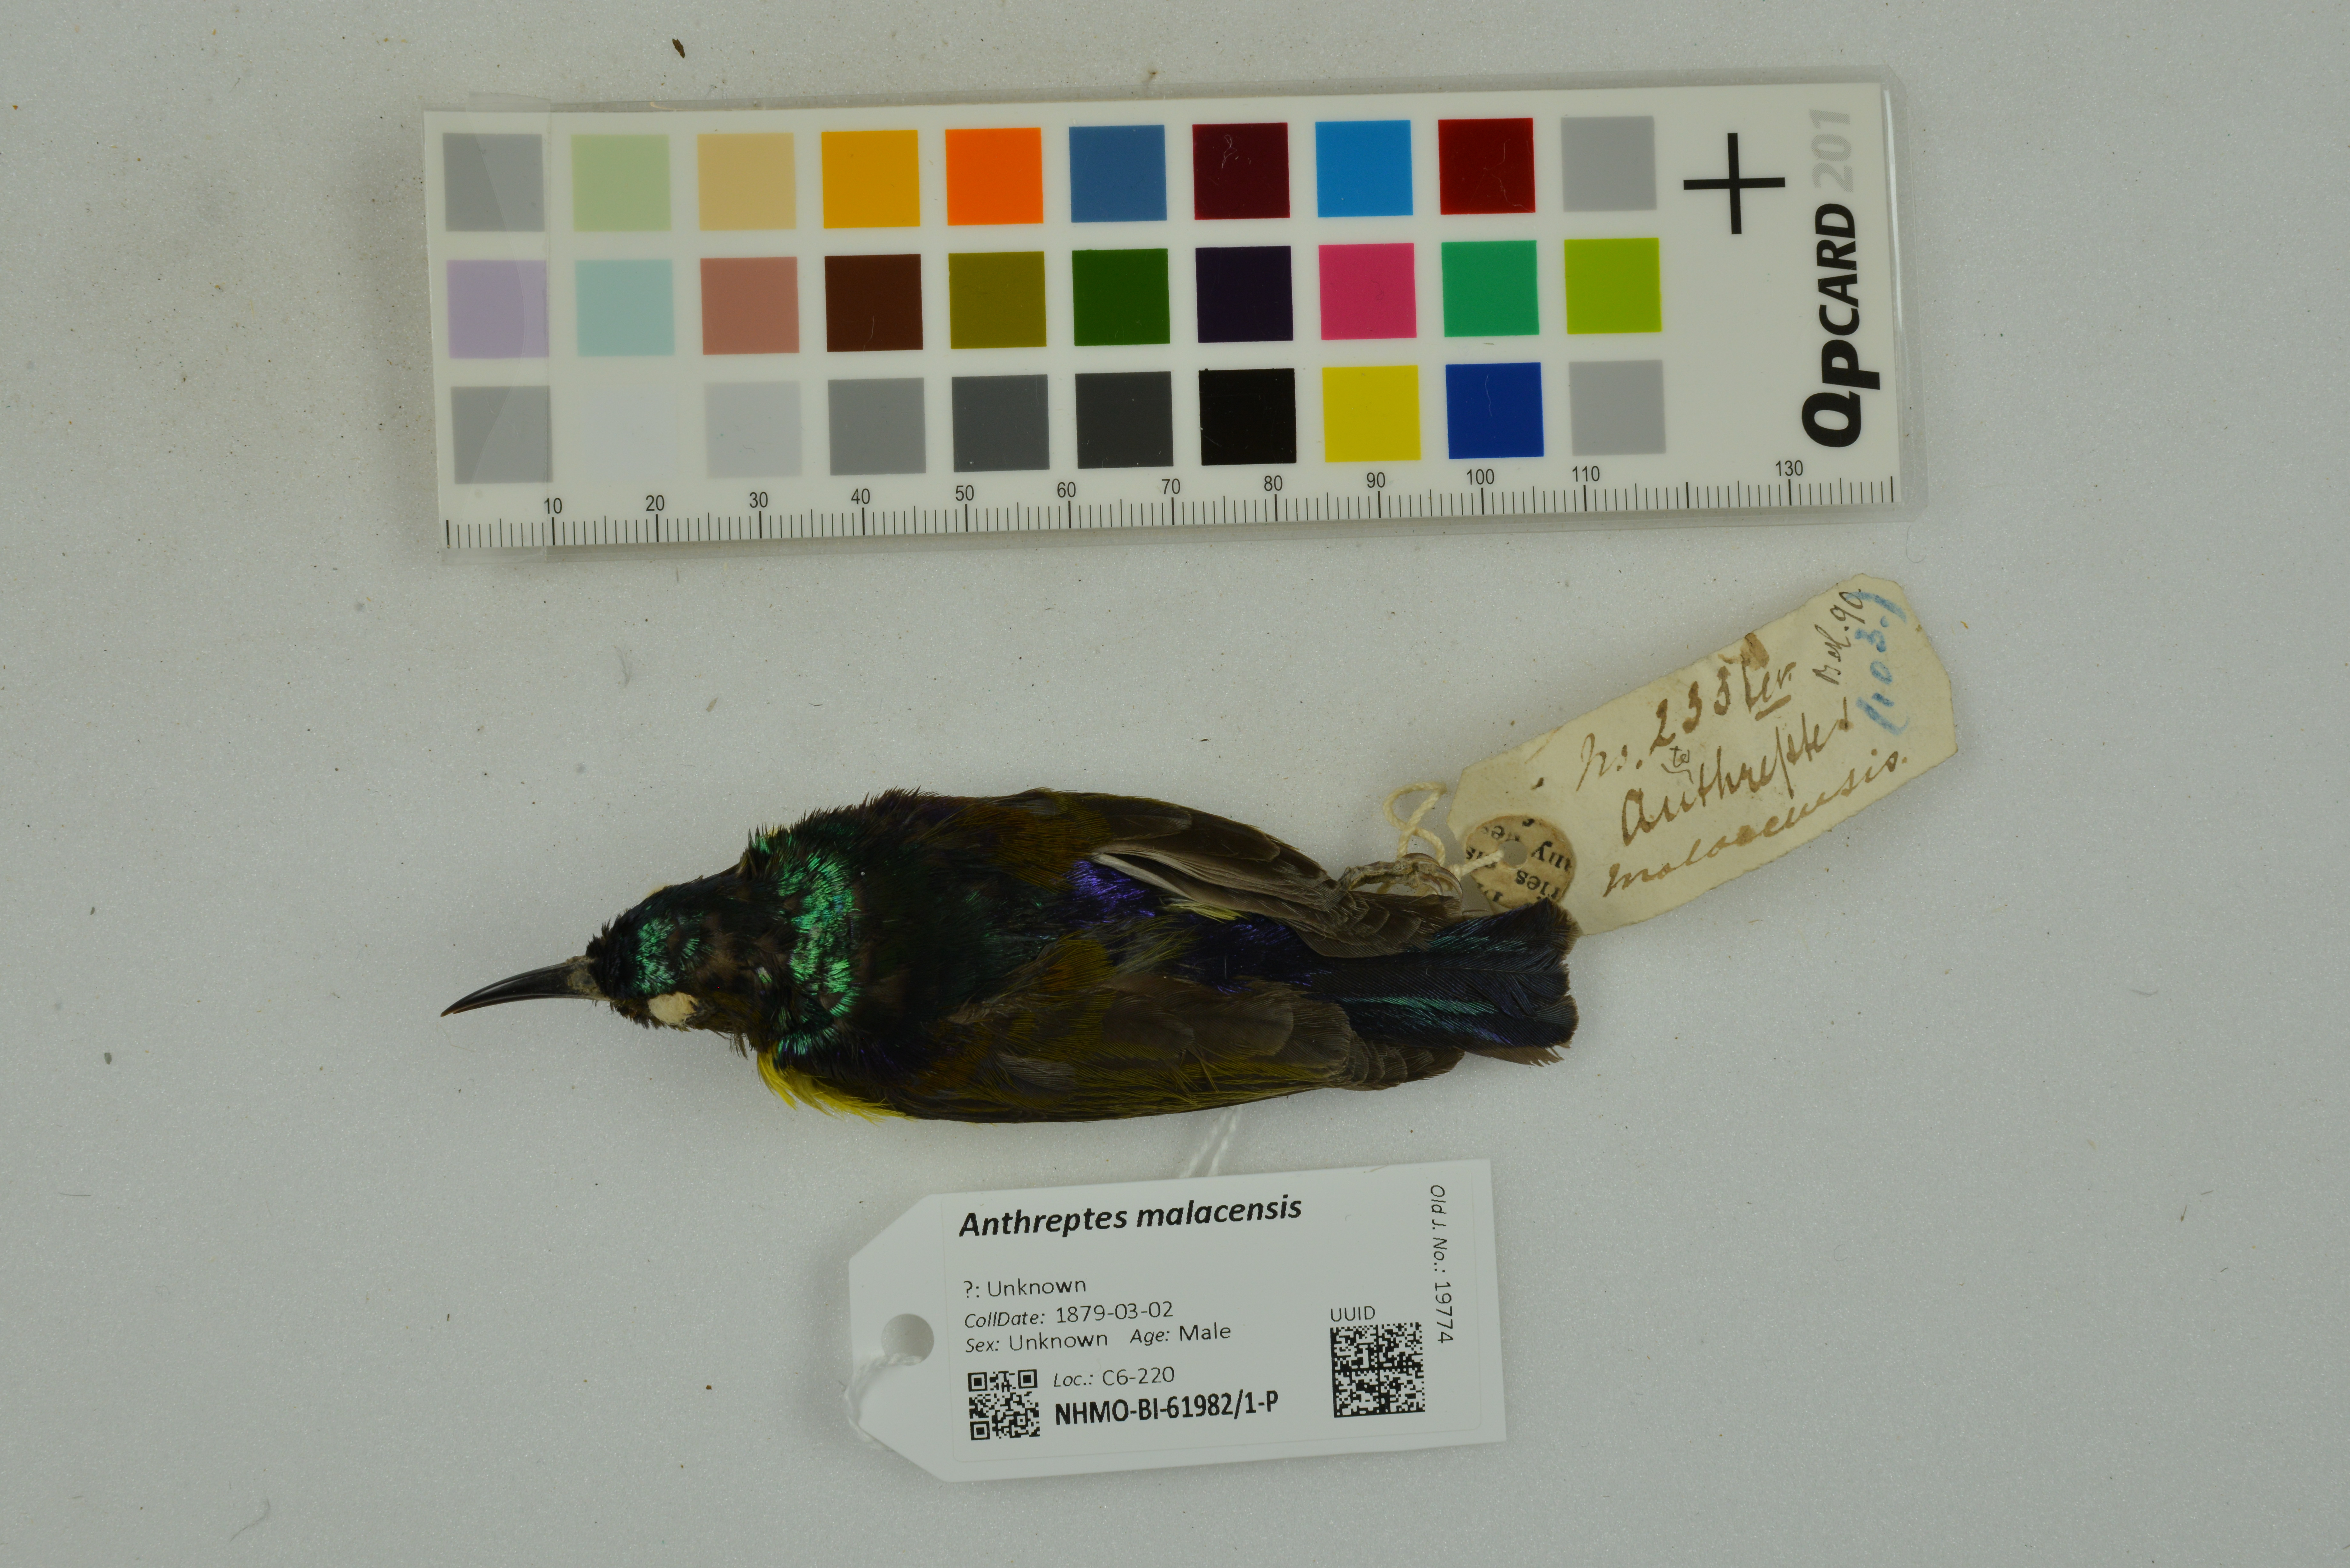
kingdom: Animalia
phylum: Chordata
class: Aves
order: Passeriformes
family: Nectariniidae
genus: Anthreptes
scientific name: Anthreptes malacensis
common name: Brown-throated sunbird
